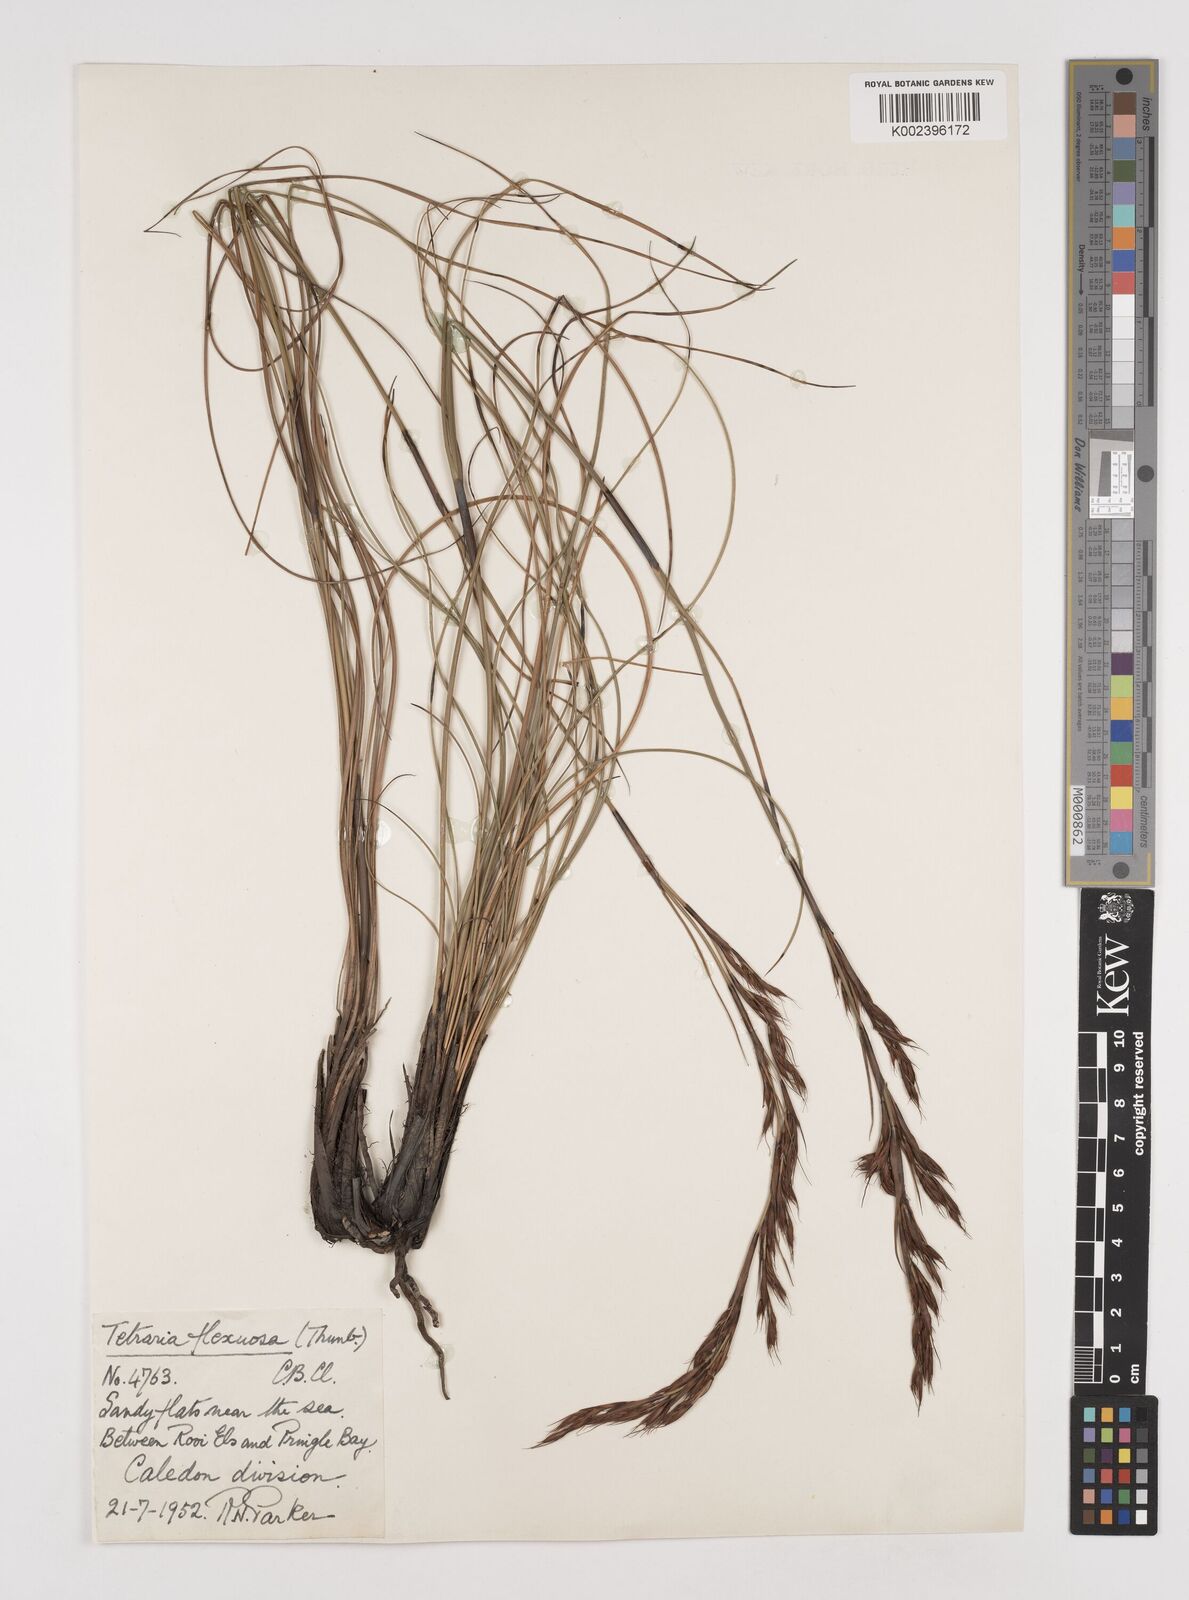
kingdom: Plantae
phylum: Tracheophyta
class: Liliopsida
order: Poales
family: Cyperaceae
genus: Tetraria
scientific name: Tetraria flexuosa
